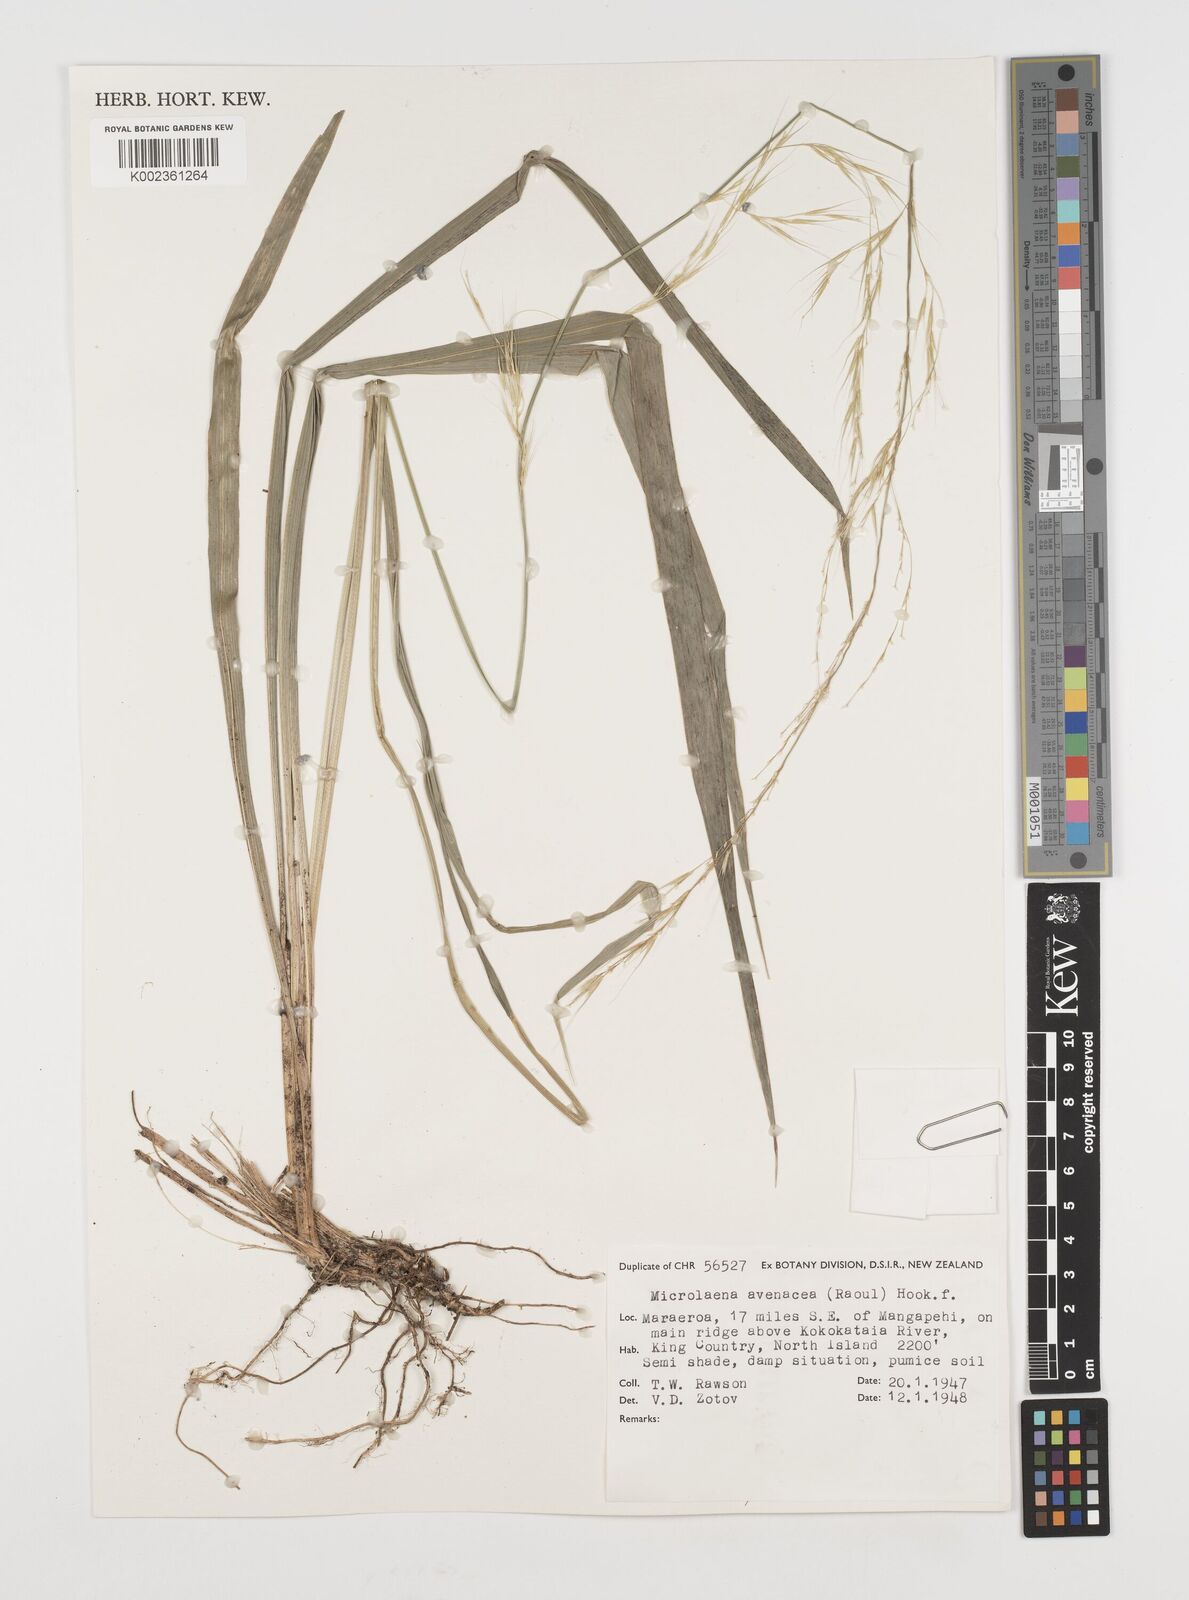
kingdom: Plantae
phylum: Tracheophyta
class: Liliopsida
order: Poales
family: Poaceae
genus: Ehrharta
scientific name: Ehrharta diplax
